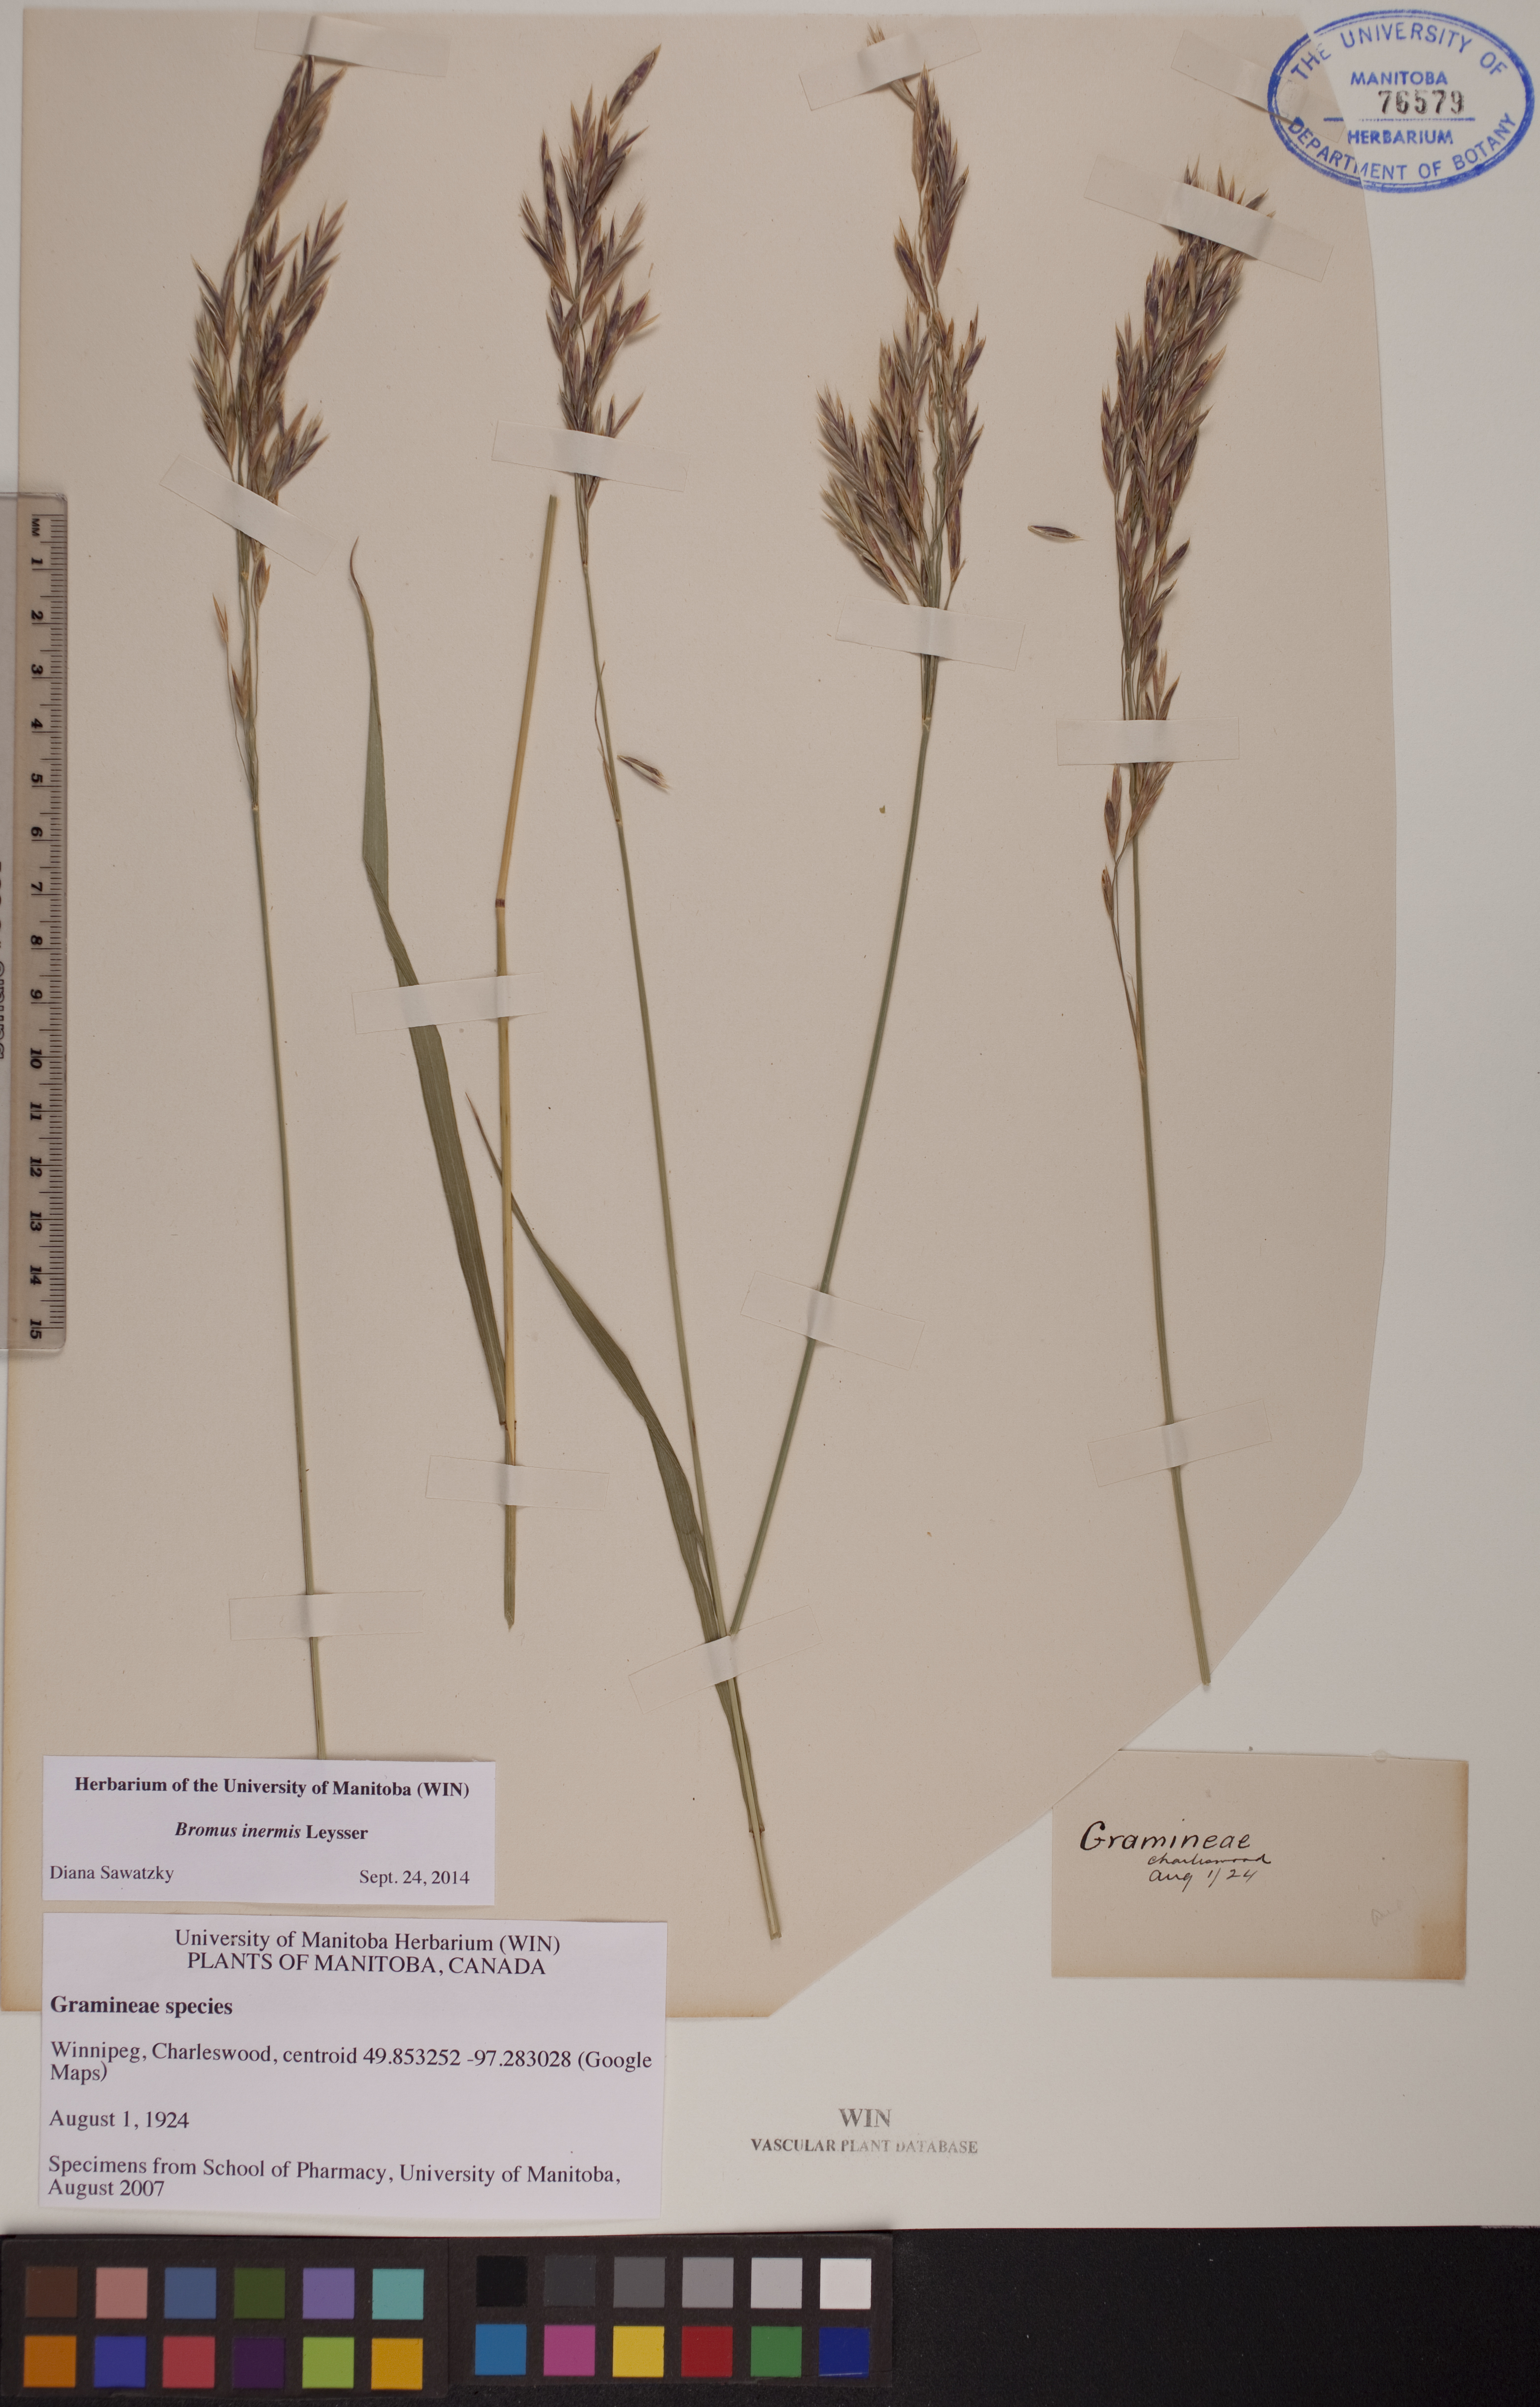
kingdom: Plantae
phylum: Tracheophyta
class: Liliopsida
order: Poales
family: Poaceae
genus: Bromus
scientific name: Bromus inermis
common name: Smooth brome
